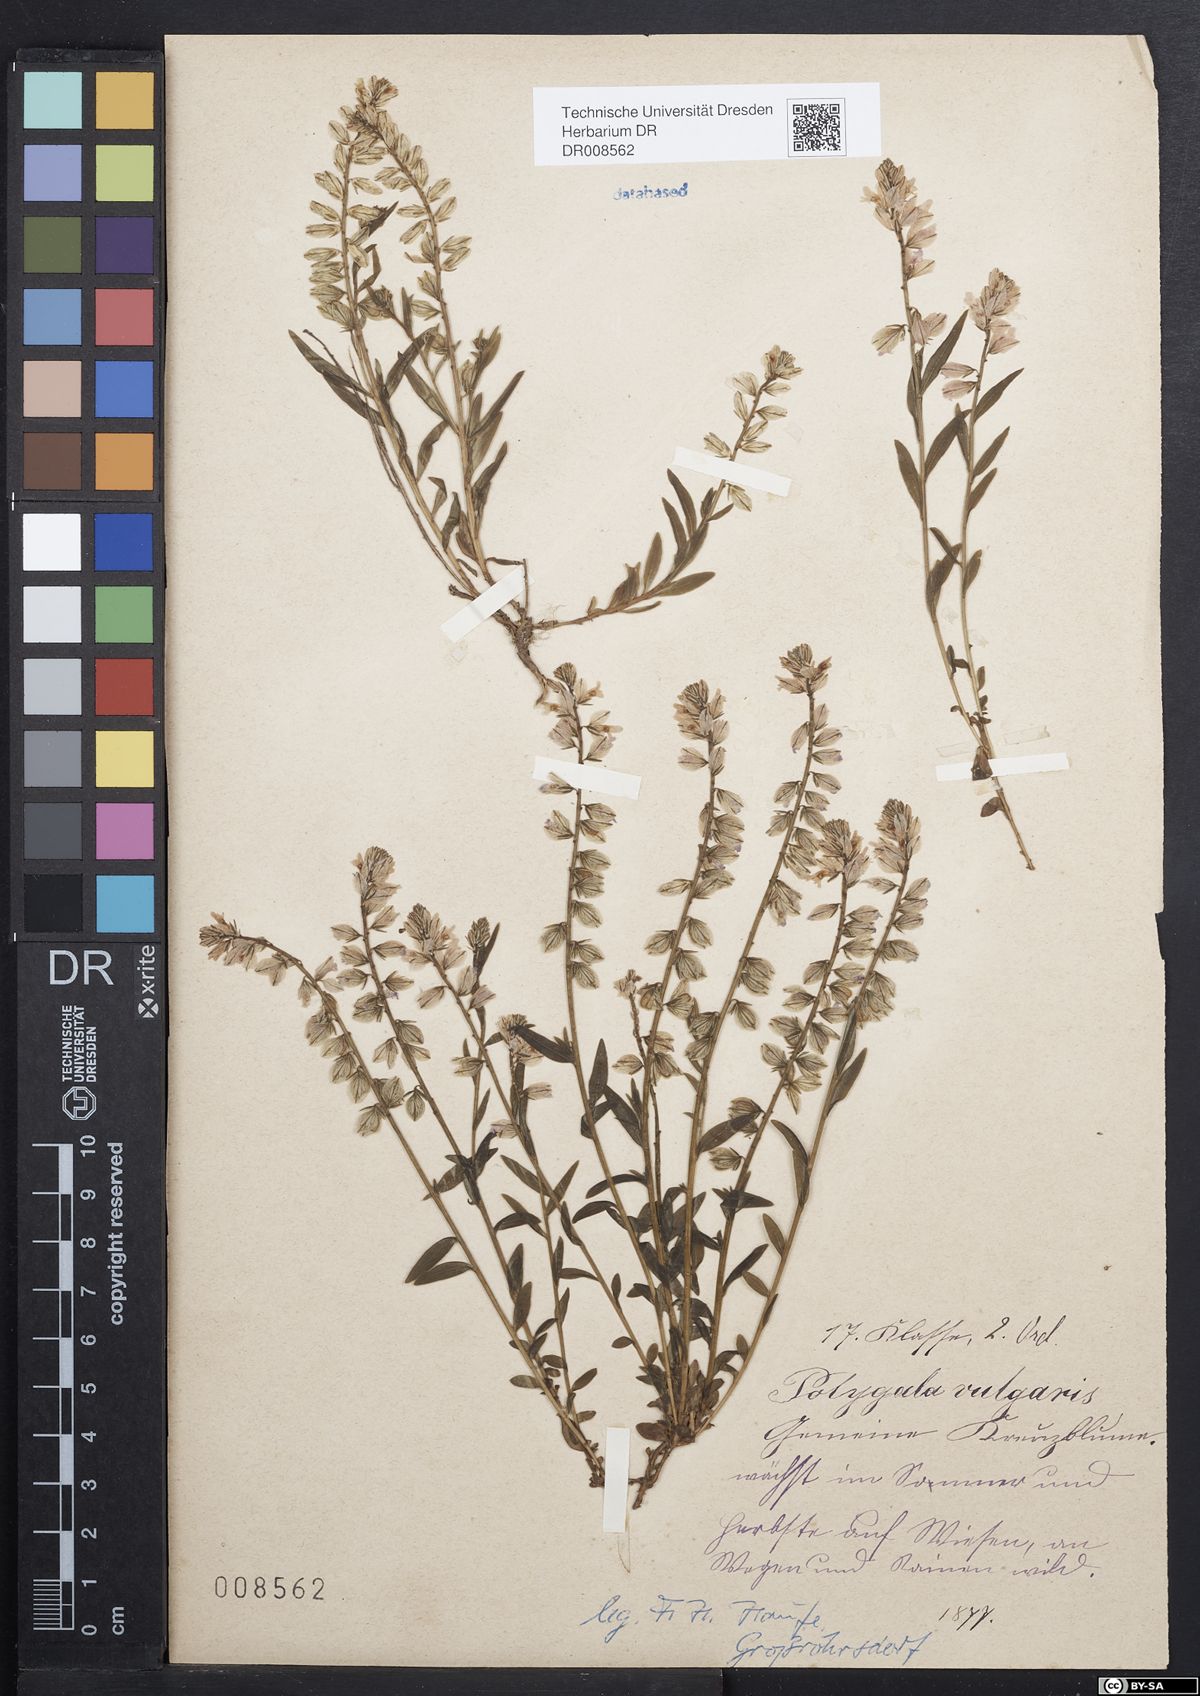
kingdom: Plantae
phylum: Tracheophyta
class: Magnoliopsida
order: Fabales
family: Polygalaceae
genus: Polygala
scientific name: Polygala vulgaris
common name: Common milkwort
